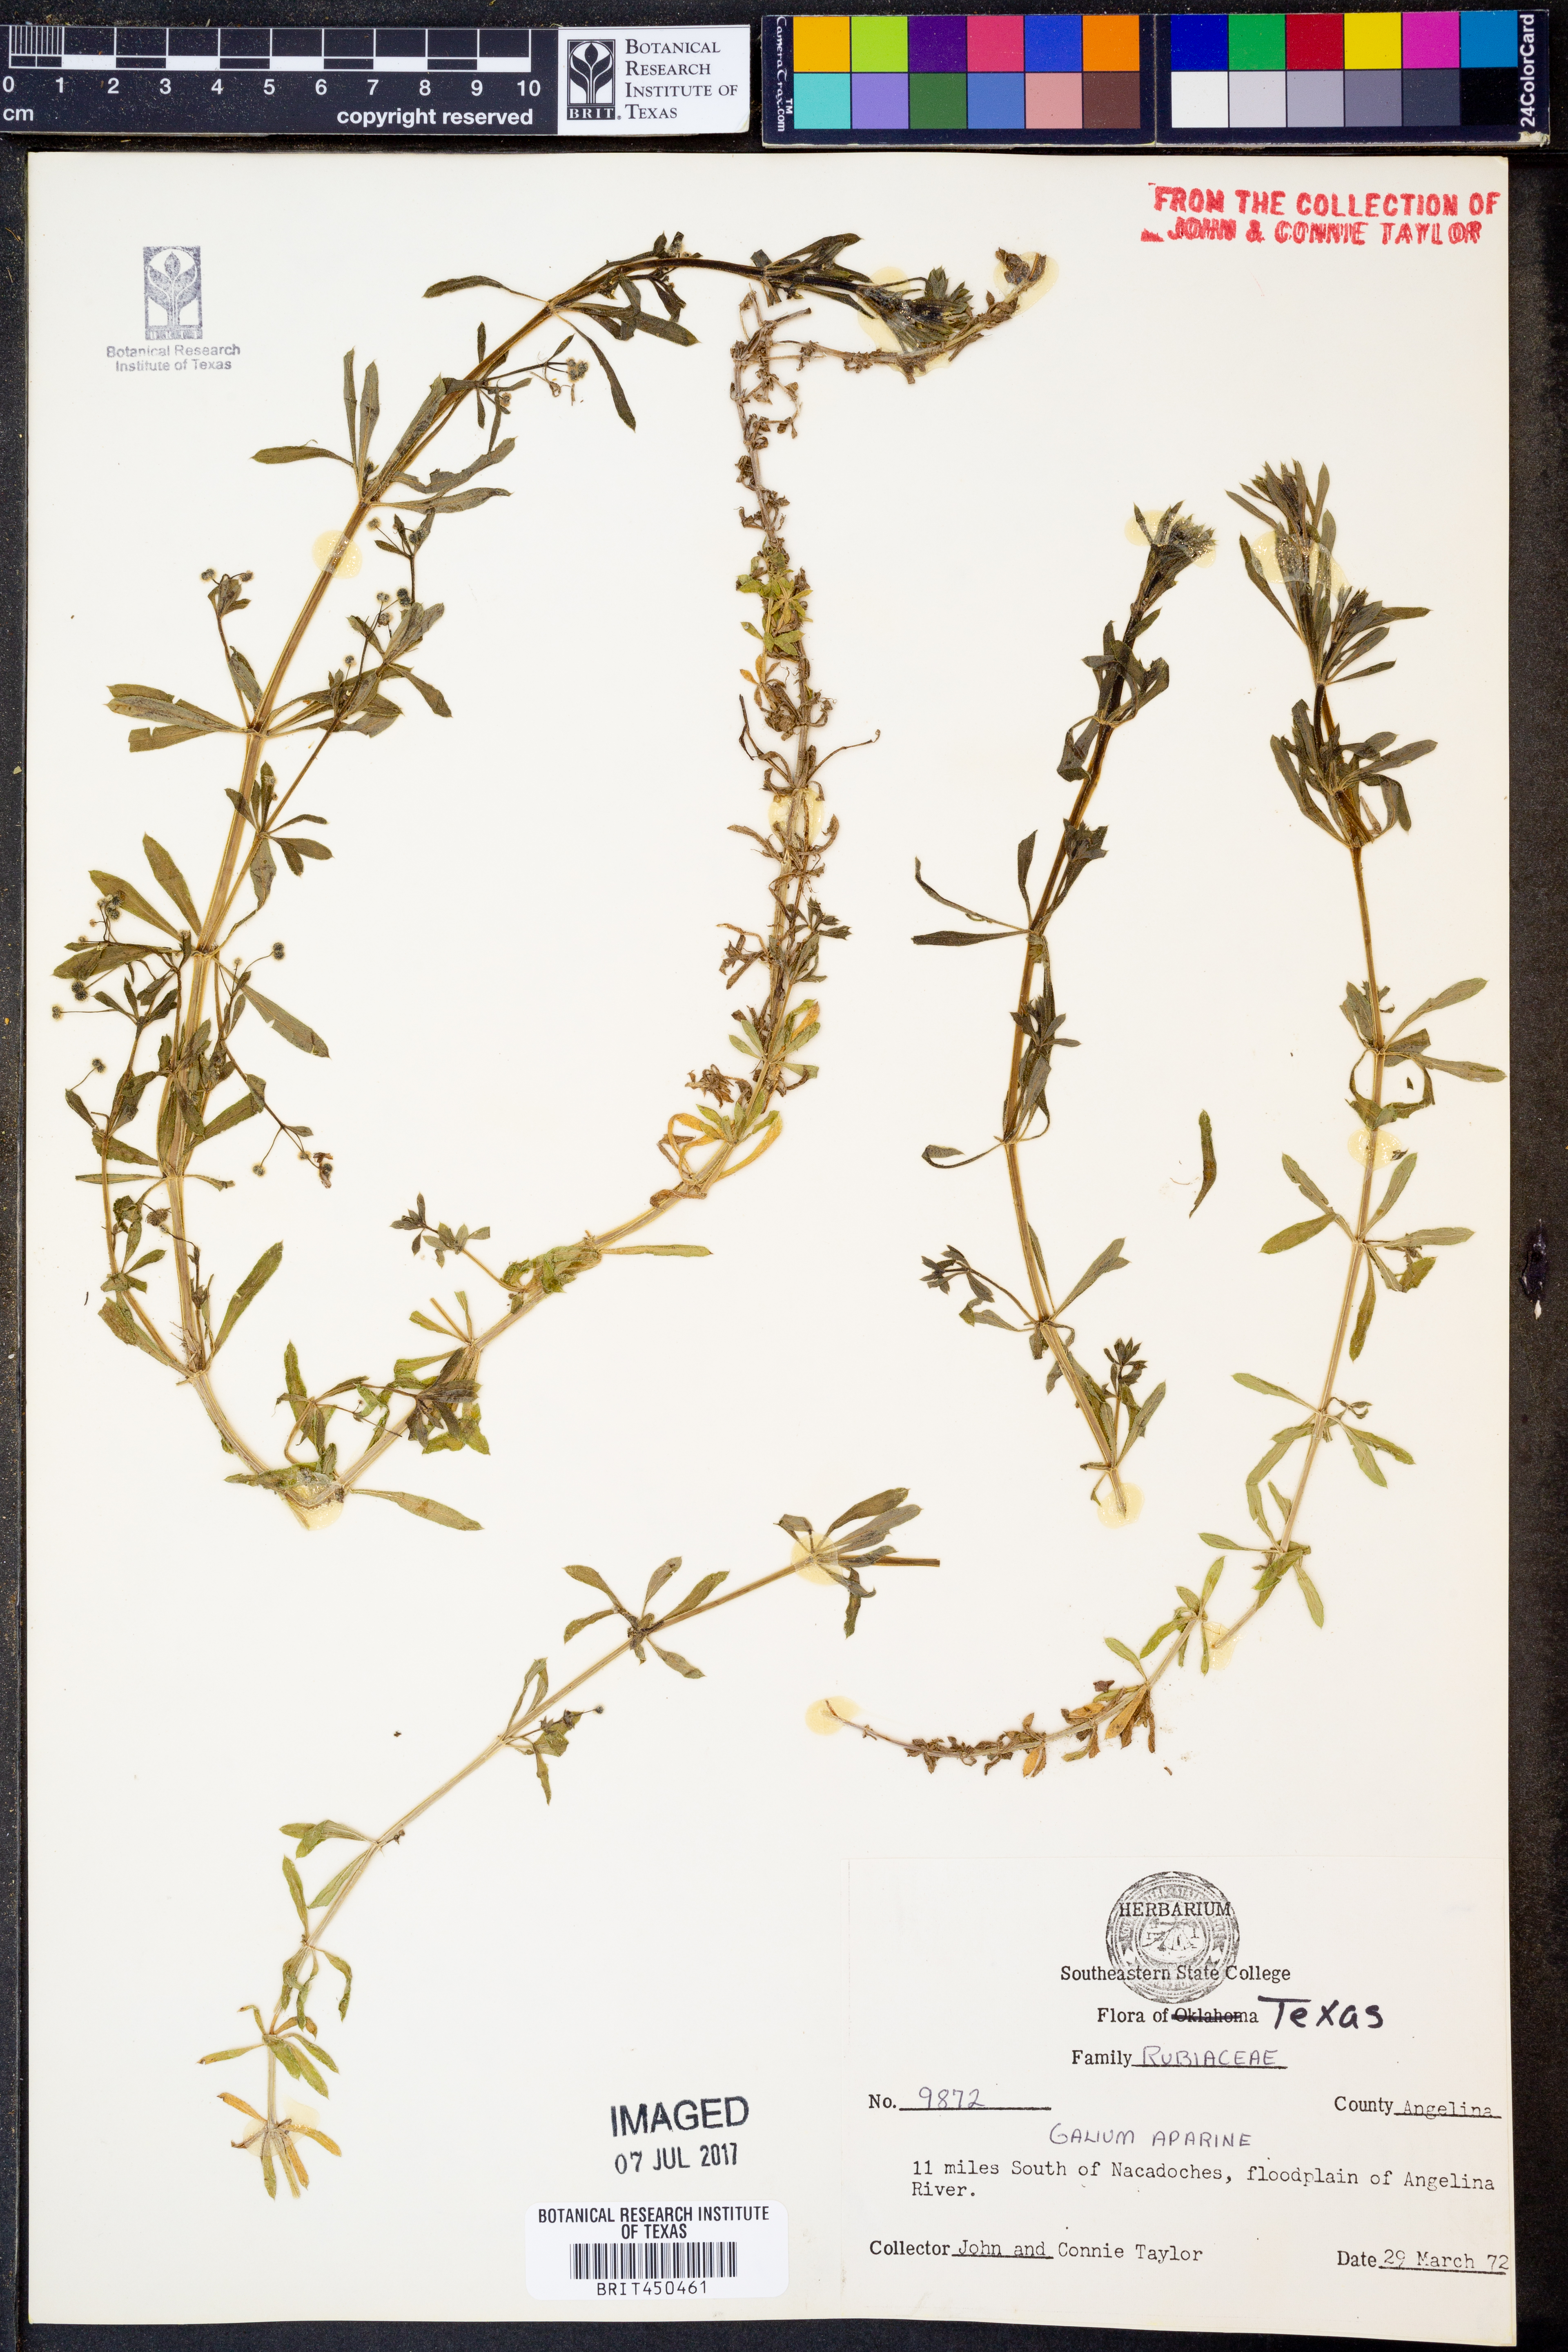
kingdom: Plantae
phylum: Tracheophyta
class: Magnoliopsida
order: Gentianales
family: Rubiaceae
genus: Galium
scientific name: Galium aparine
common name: Cleavers
